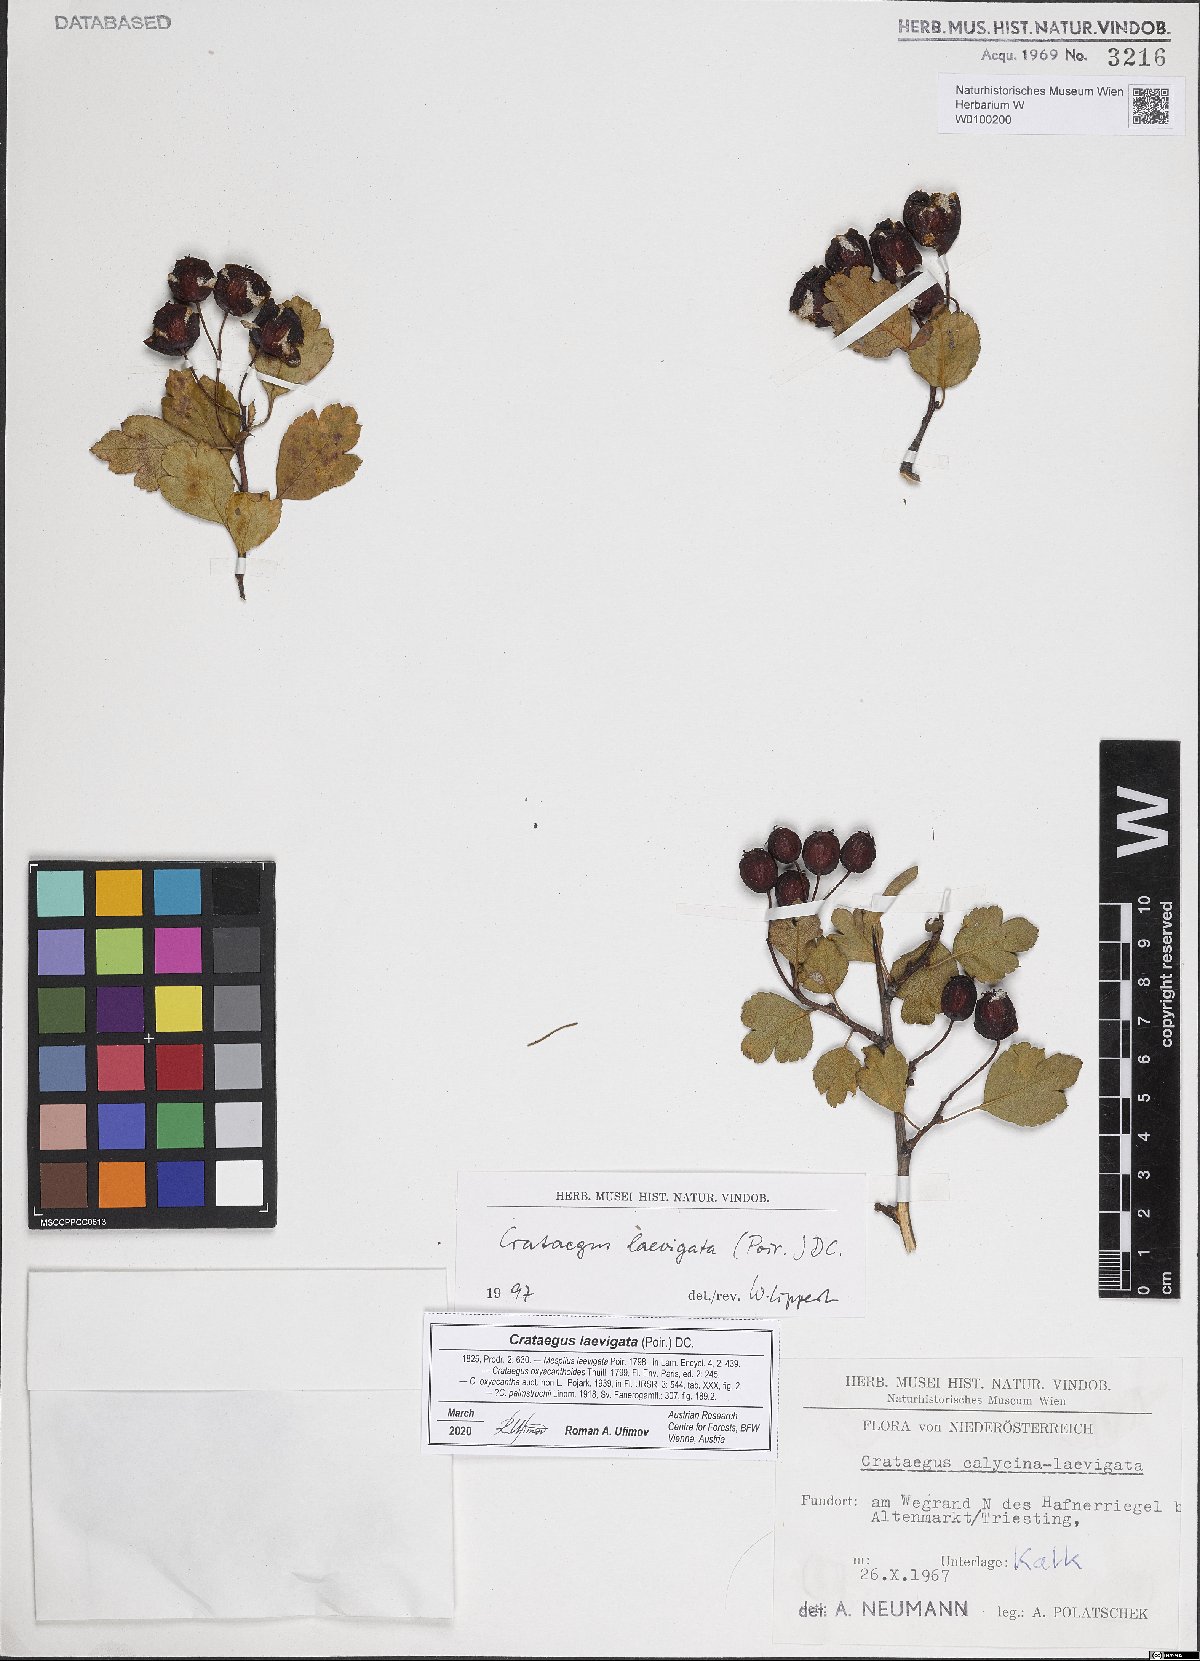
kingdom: Plantae
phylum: Tracheophyta
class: Magnoliopsida
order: Rosales
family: Rosaceae
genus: Crataegus
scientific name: Crataegus laevigata
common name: Midland hawthorn
